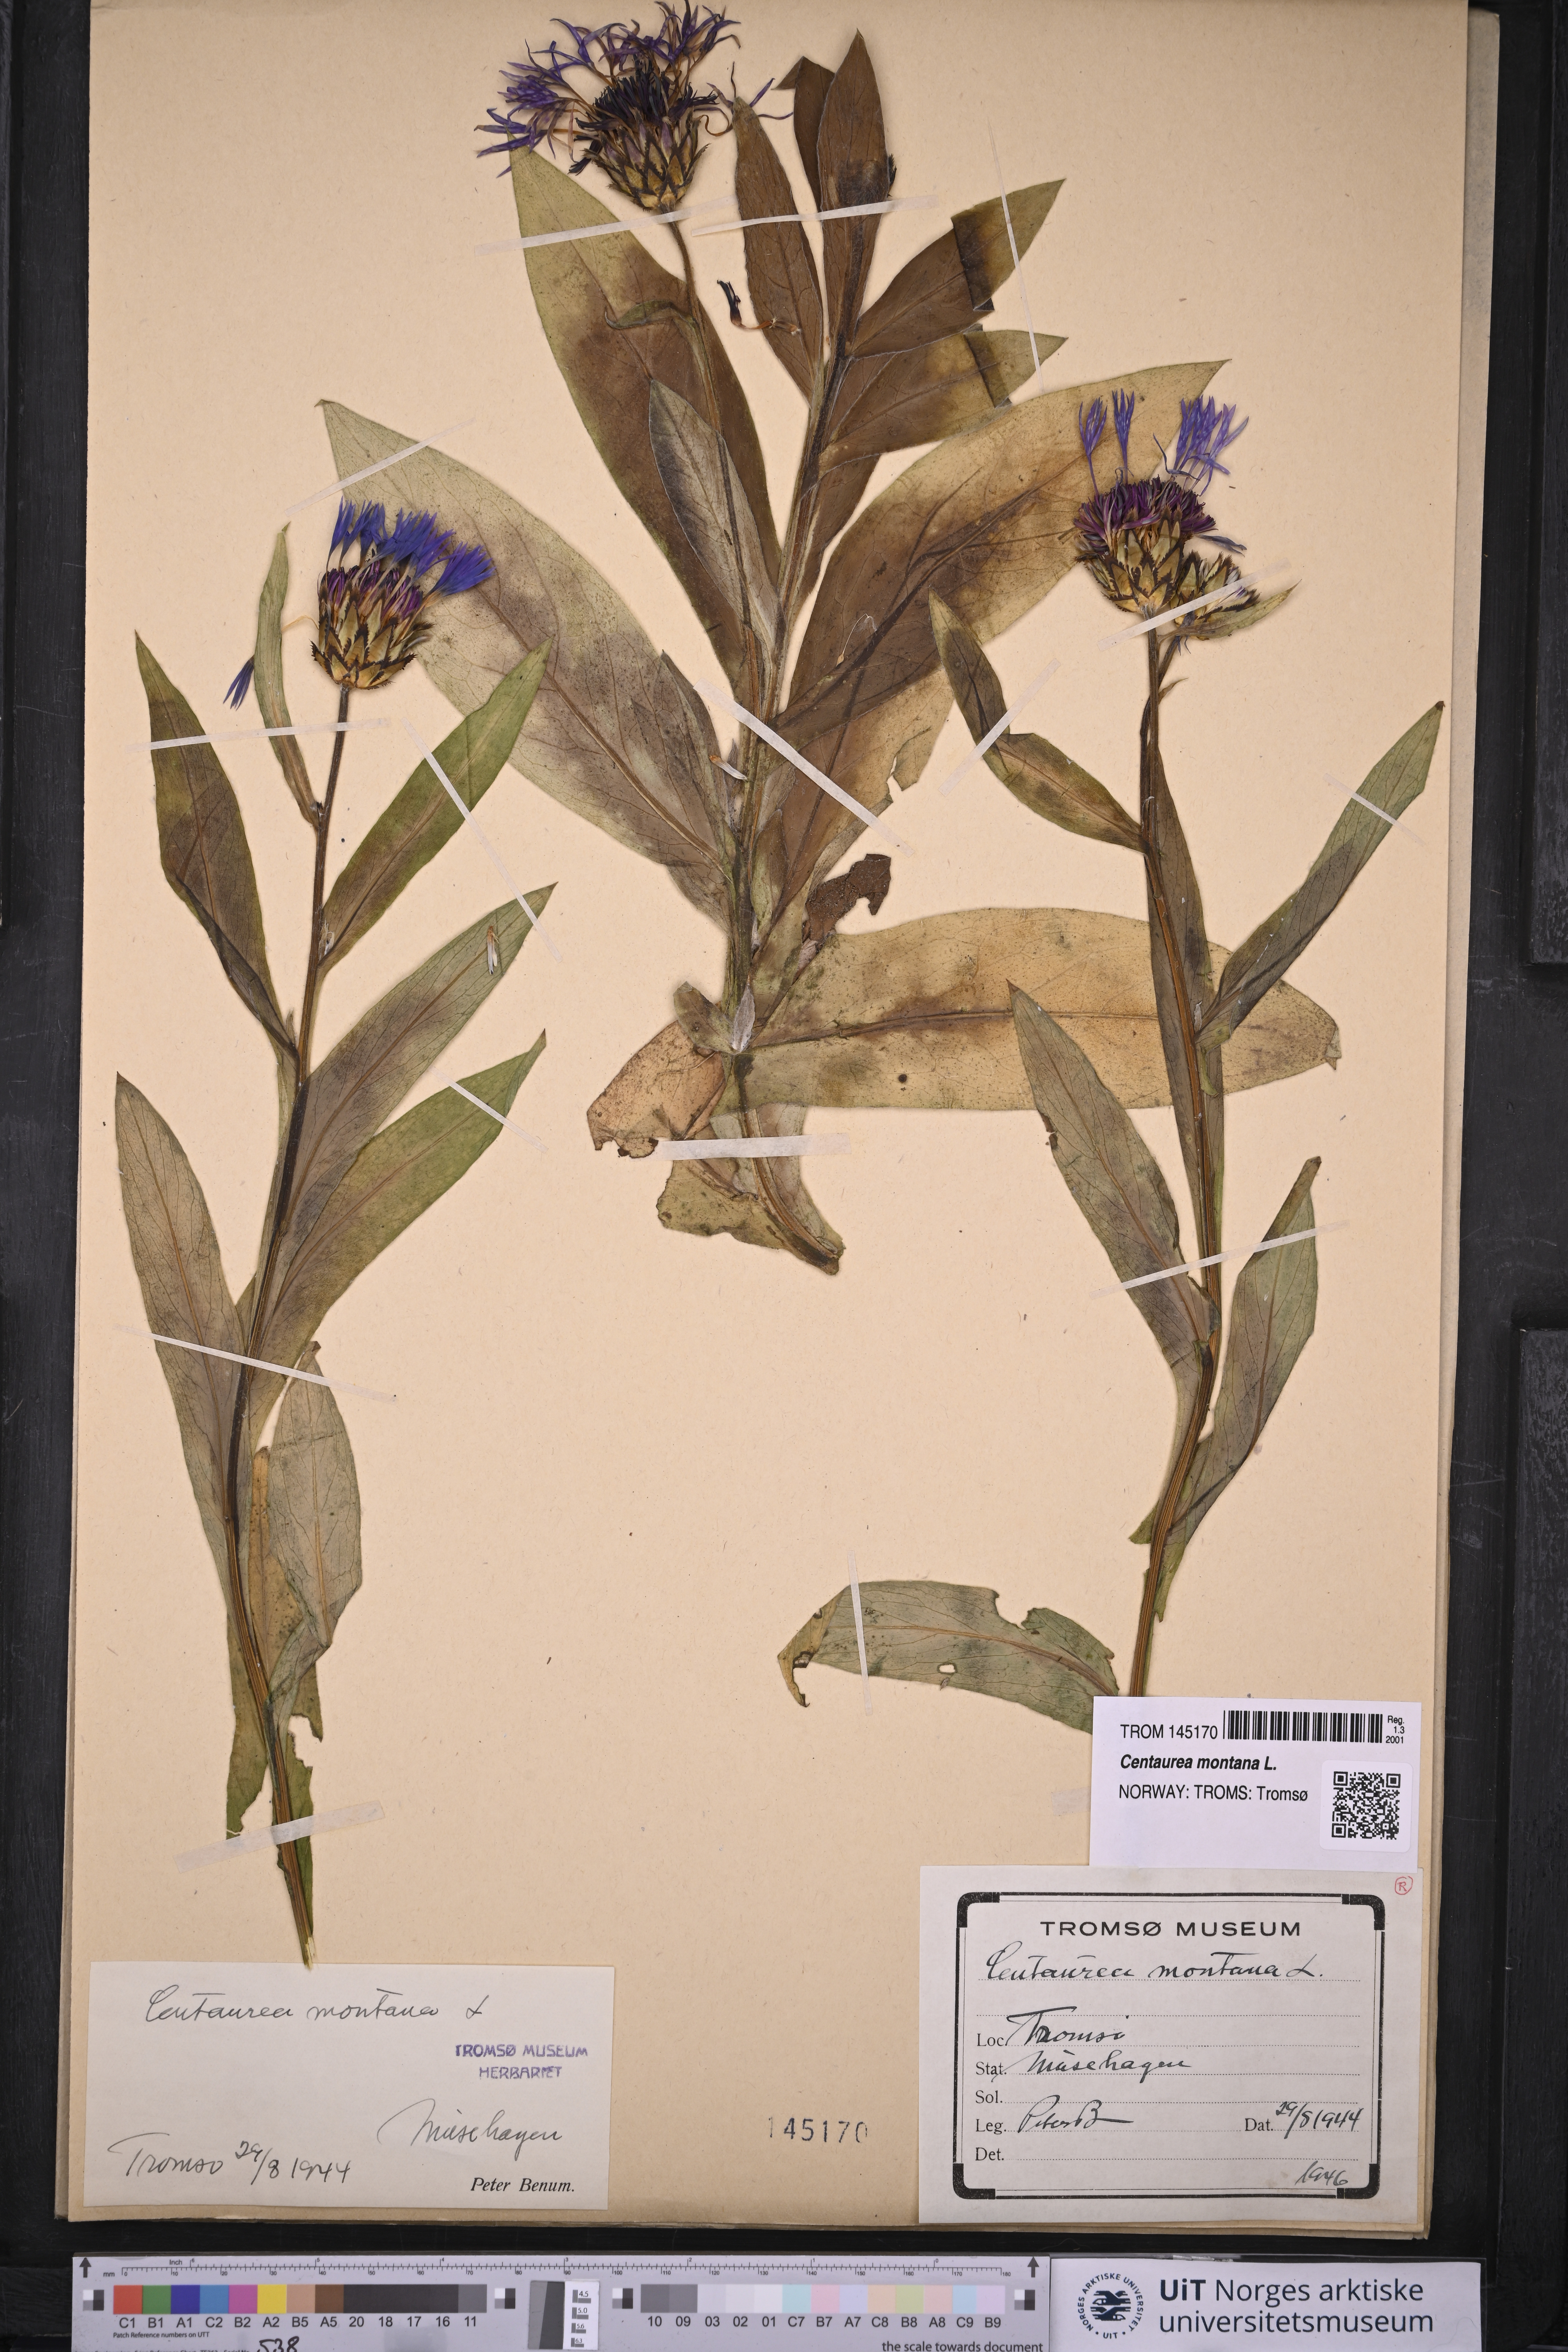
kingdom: Plantae
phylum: Tracheophyta
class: Magnoliopsida
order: Asterales
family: Asteraceae
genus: Centaurea
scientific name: Centaurea montana
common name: Perennial cornflower
